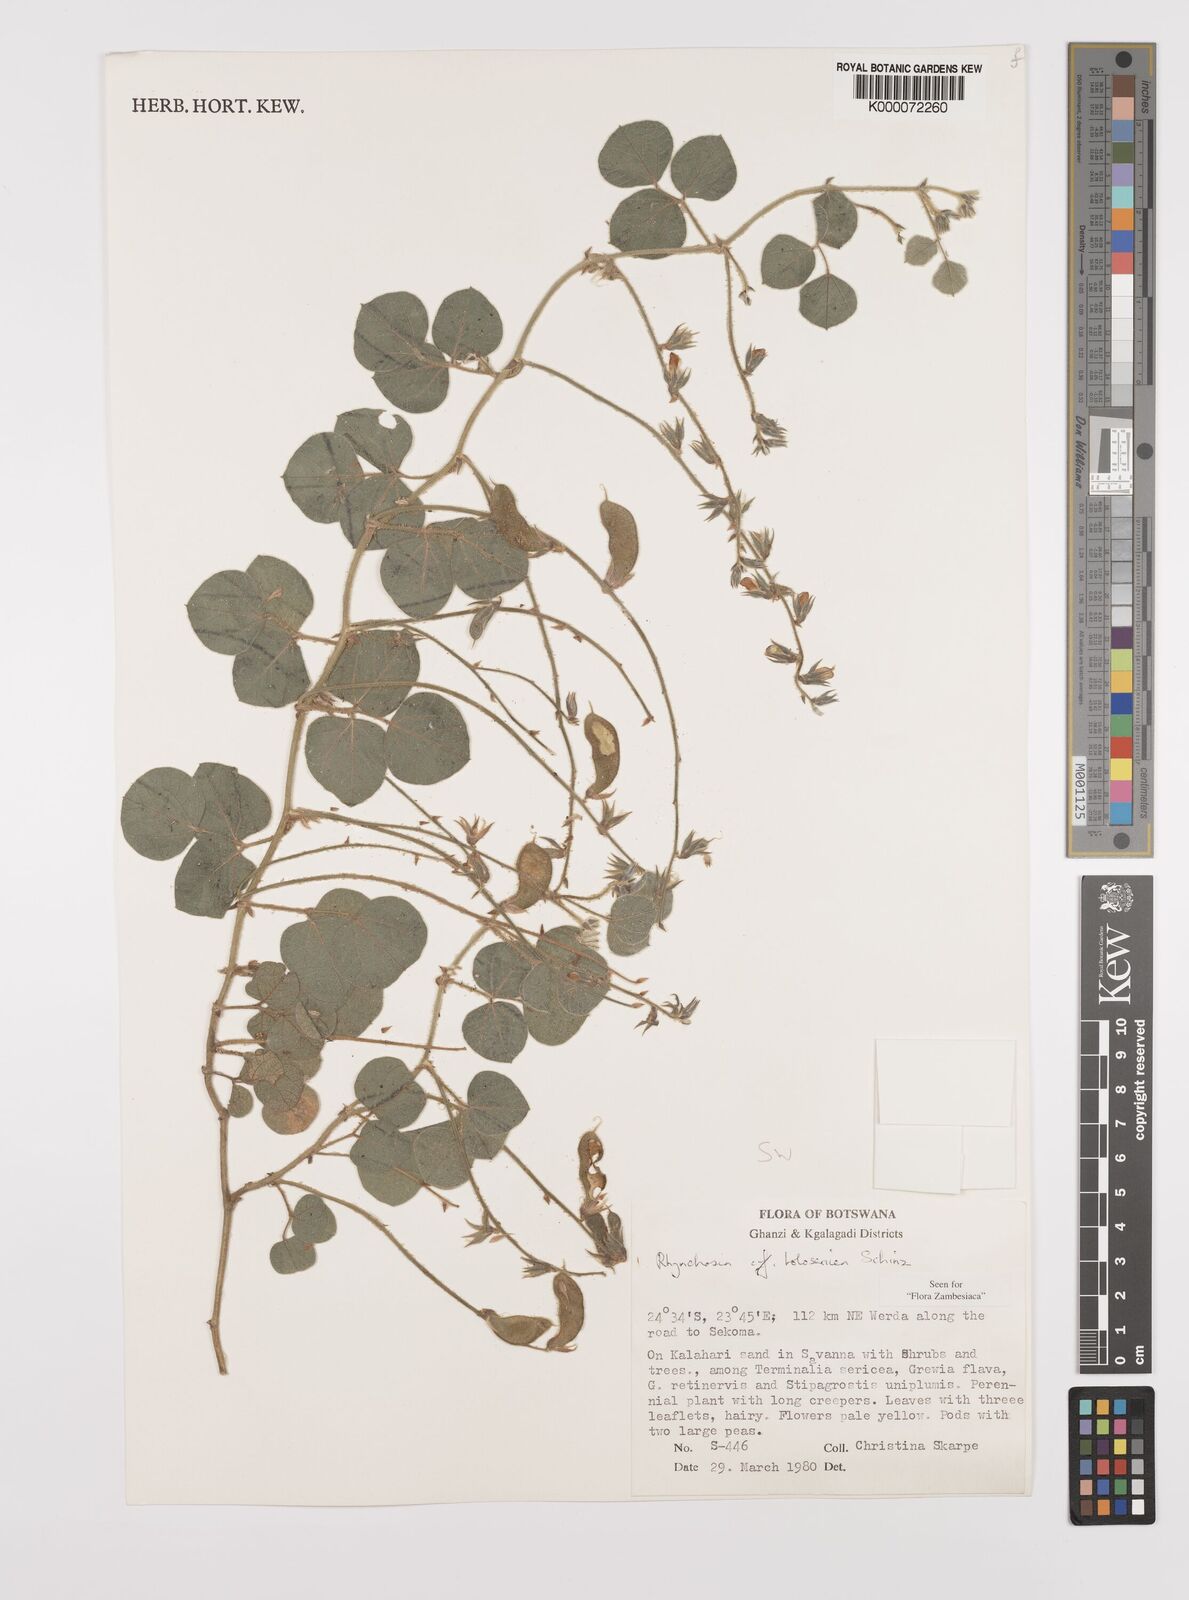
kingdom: Plantae
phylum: Tracheophyta
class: Magnoliopsida
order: Fabales
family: Fabaceae
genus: Rhynchosia
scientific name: Rhynchosia holosericea
